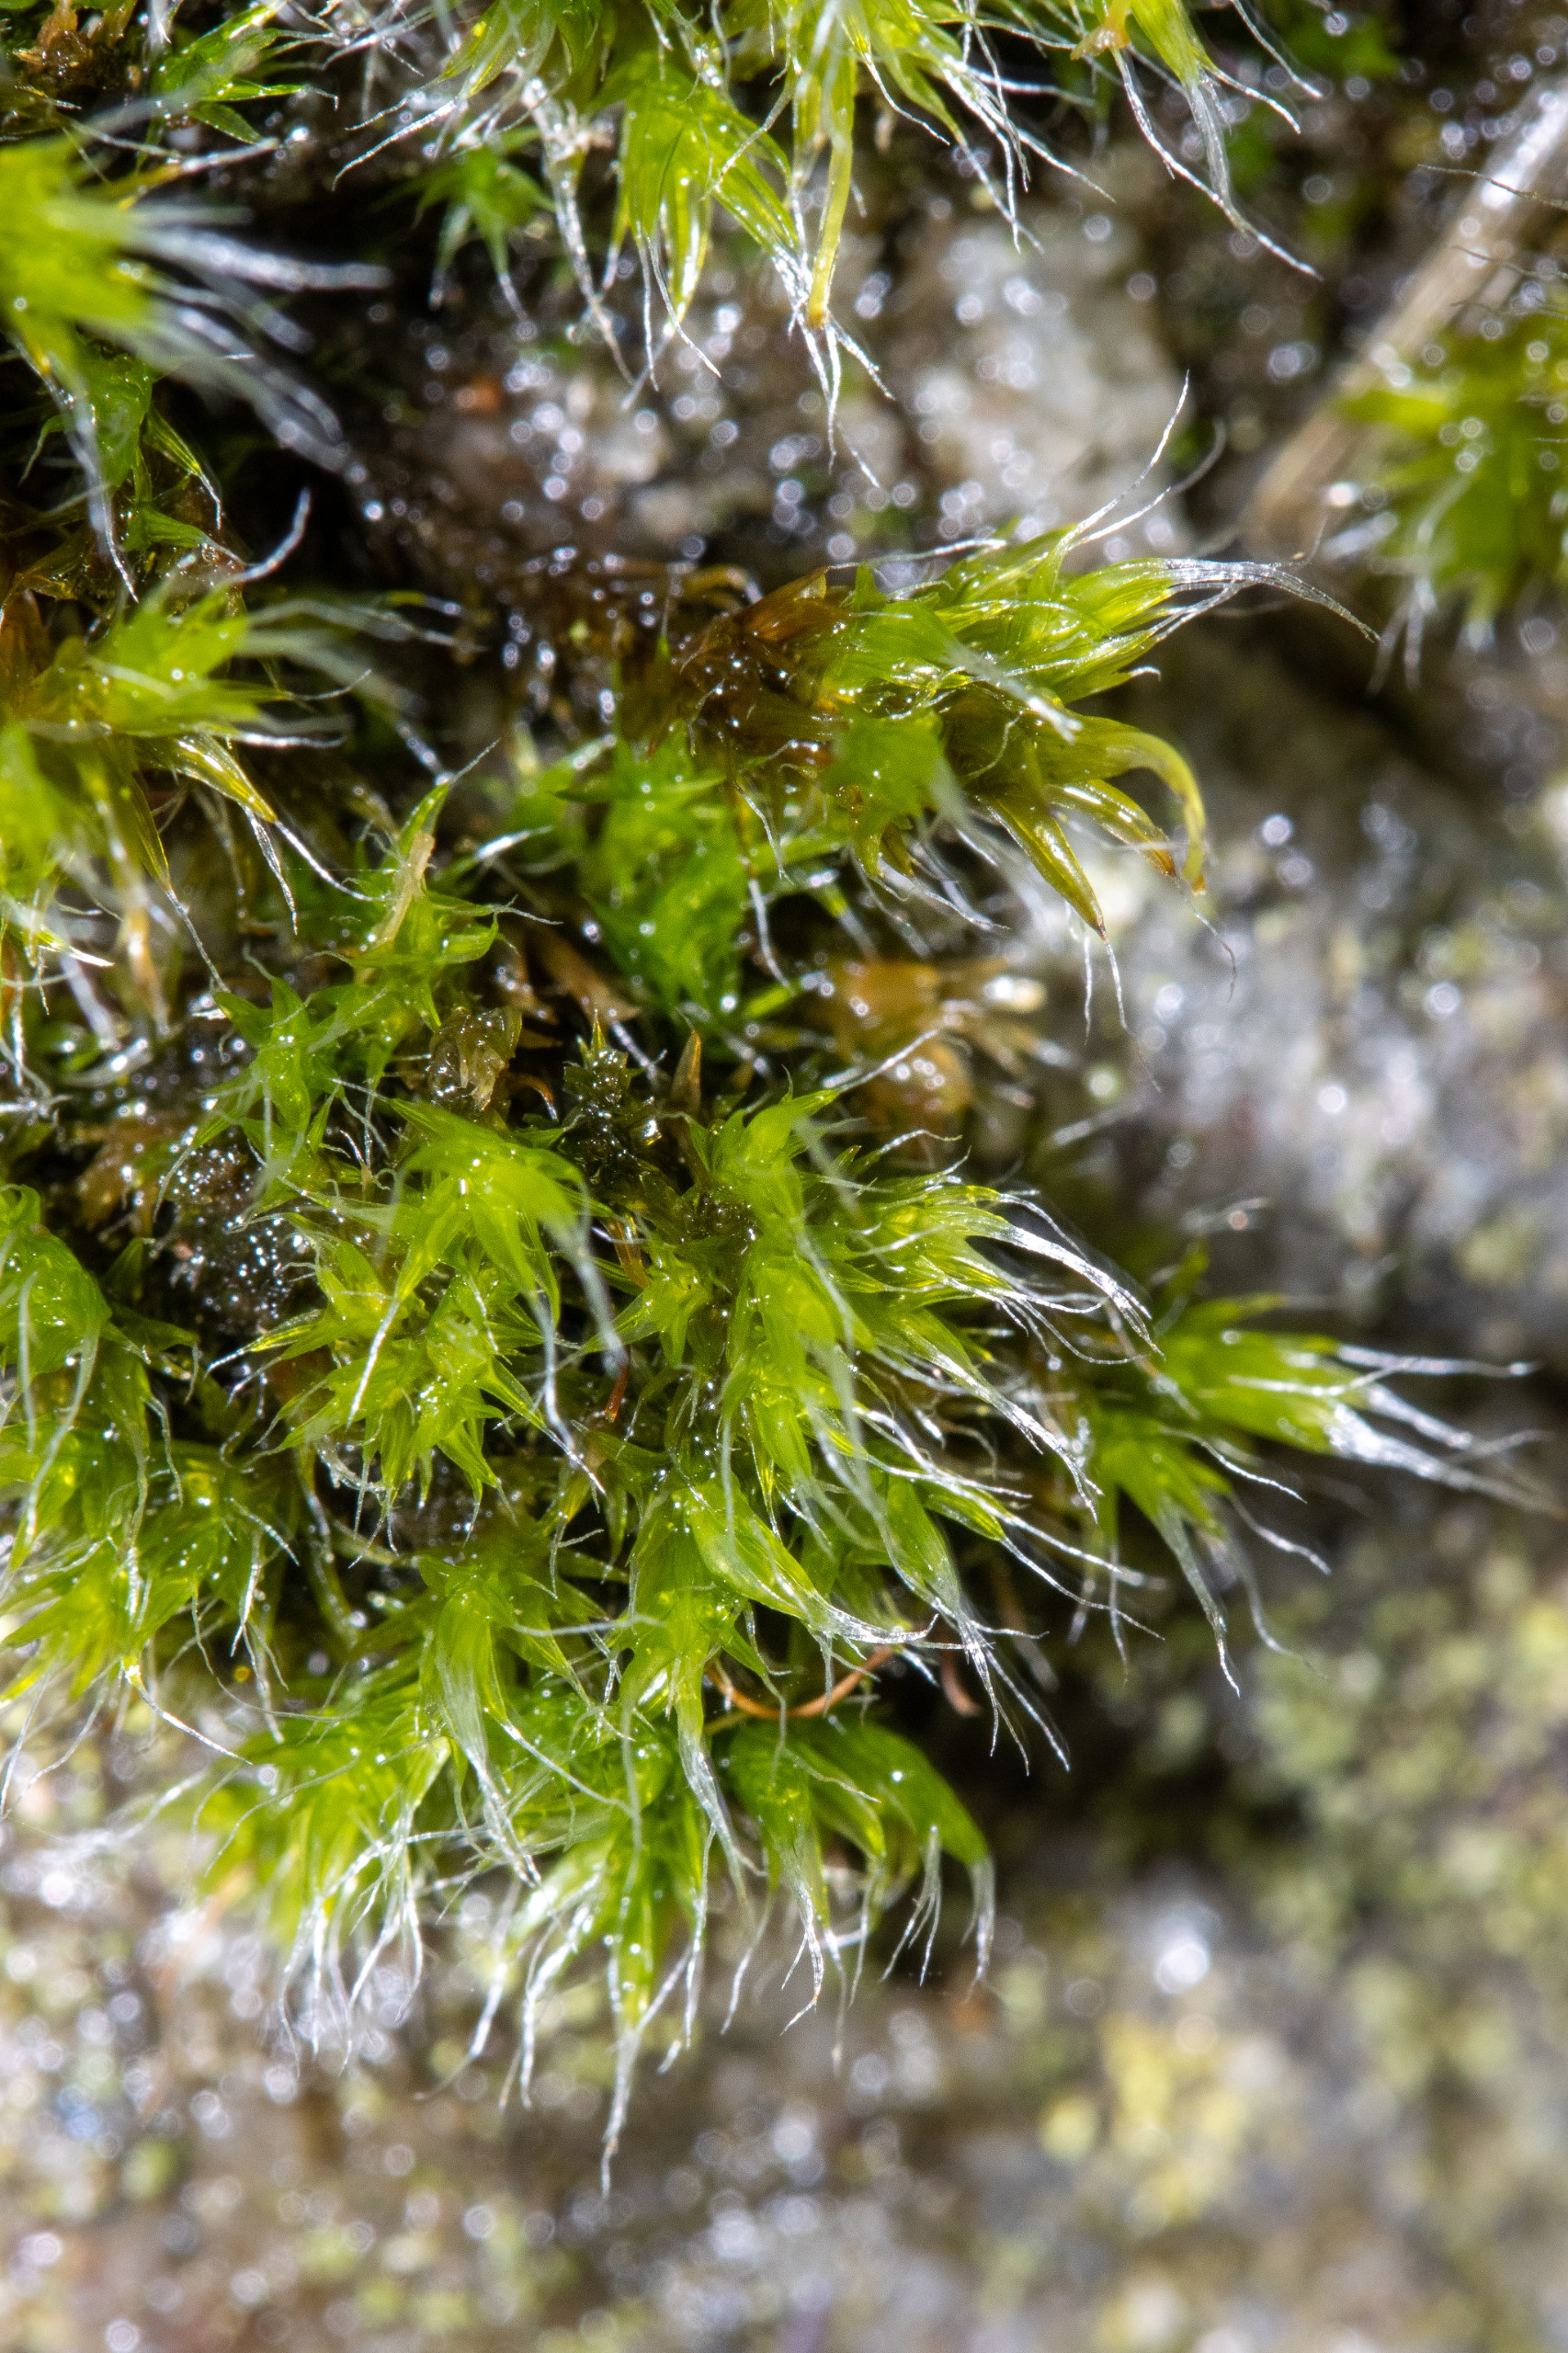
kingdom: Plantae
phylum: Bryophyta
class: Bryopsida
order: Grimmiales
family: Grimmiaceae
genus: Grimmia
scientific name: Grimmia pulvinata
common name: Pude-gråmos
